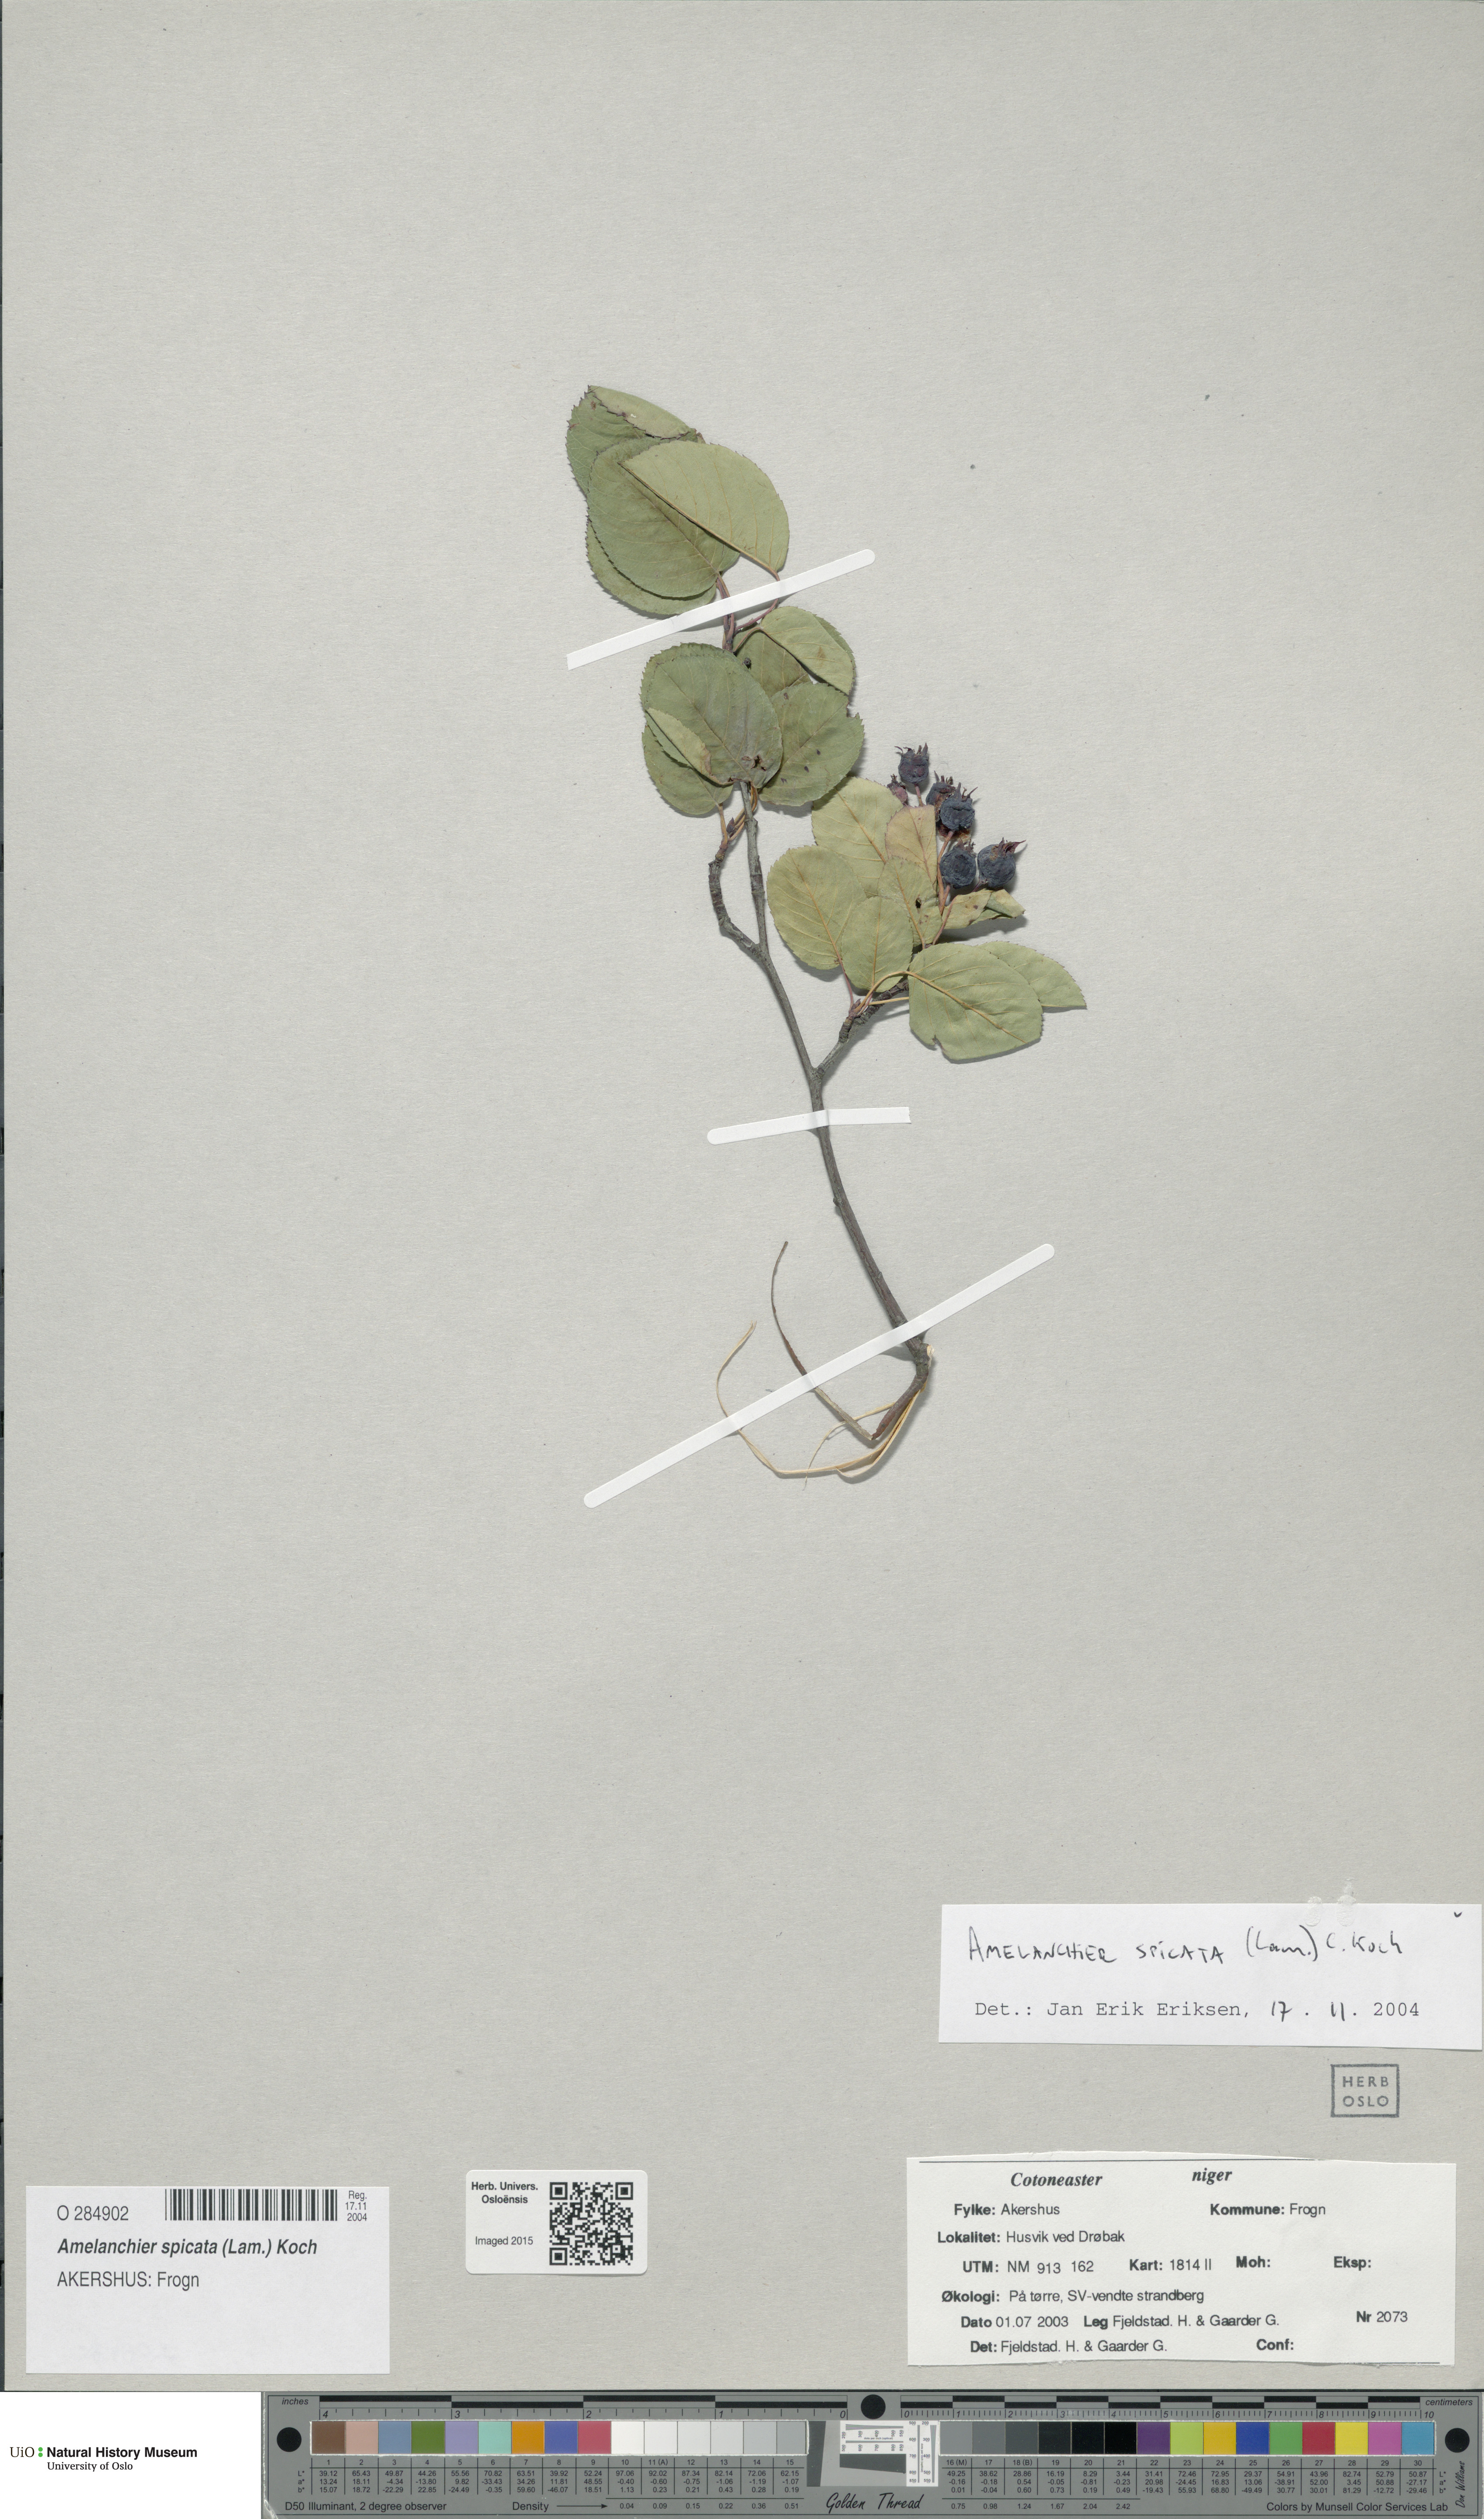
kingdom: Plantae
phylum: Tracheophyta
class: Magnoliopsida
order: Rosales
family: Rosaceae
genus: Amelanchier
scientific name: Amelanchier humilis
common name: Low juneberry
